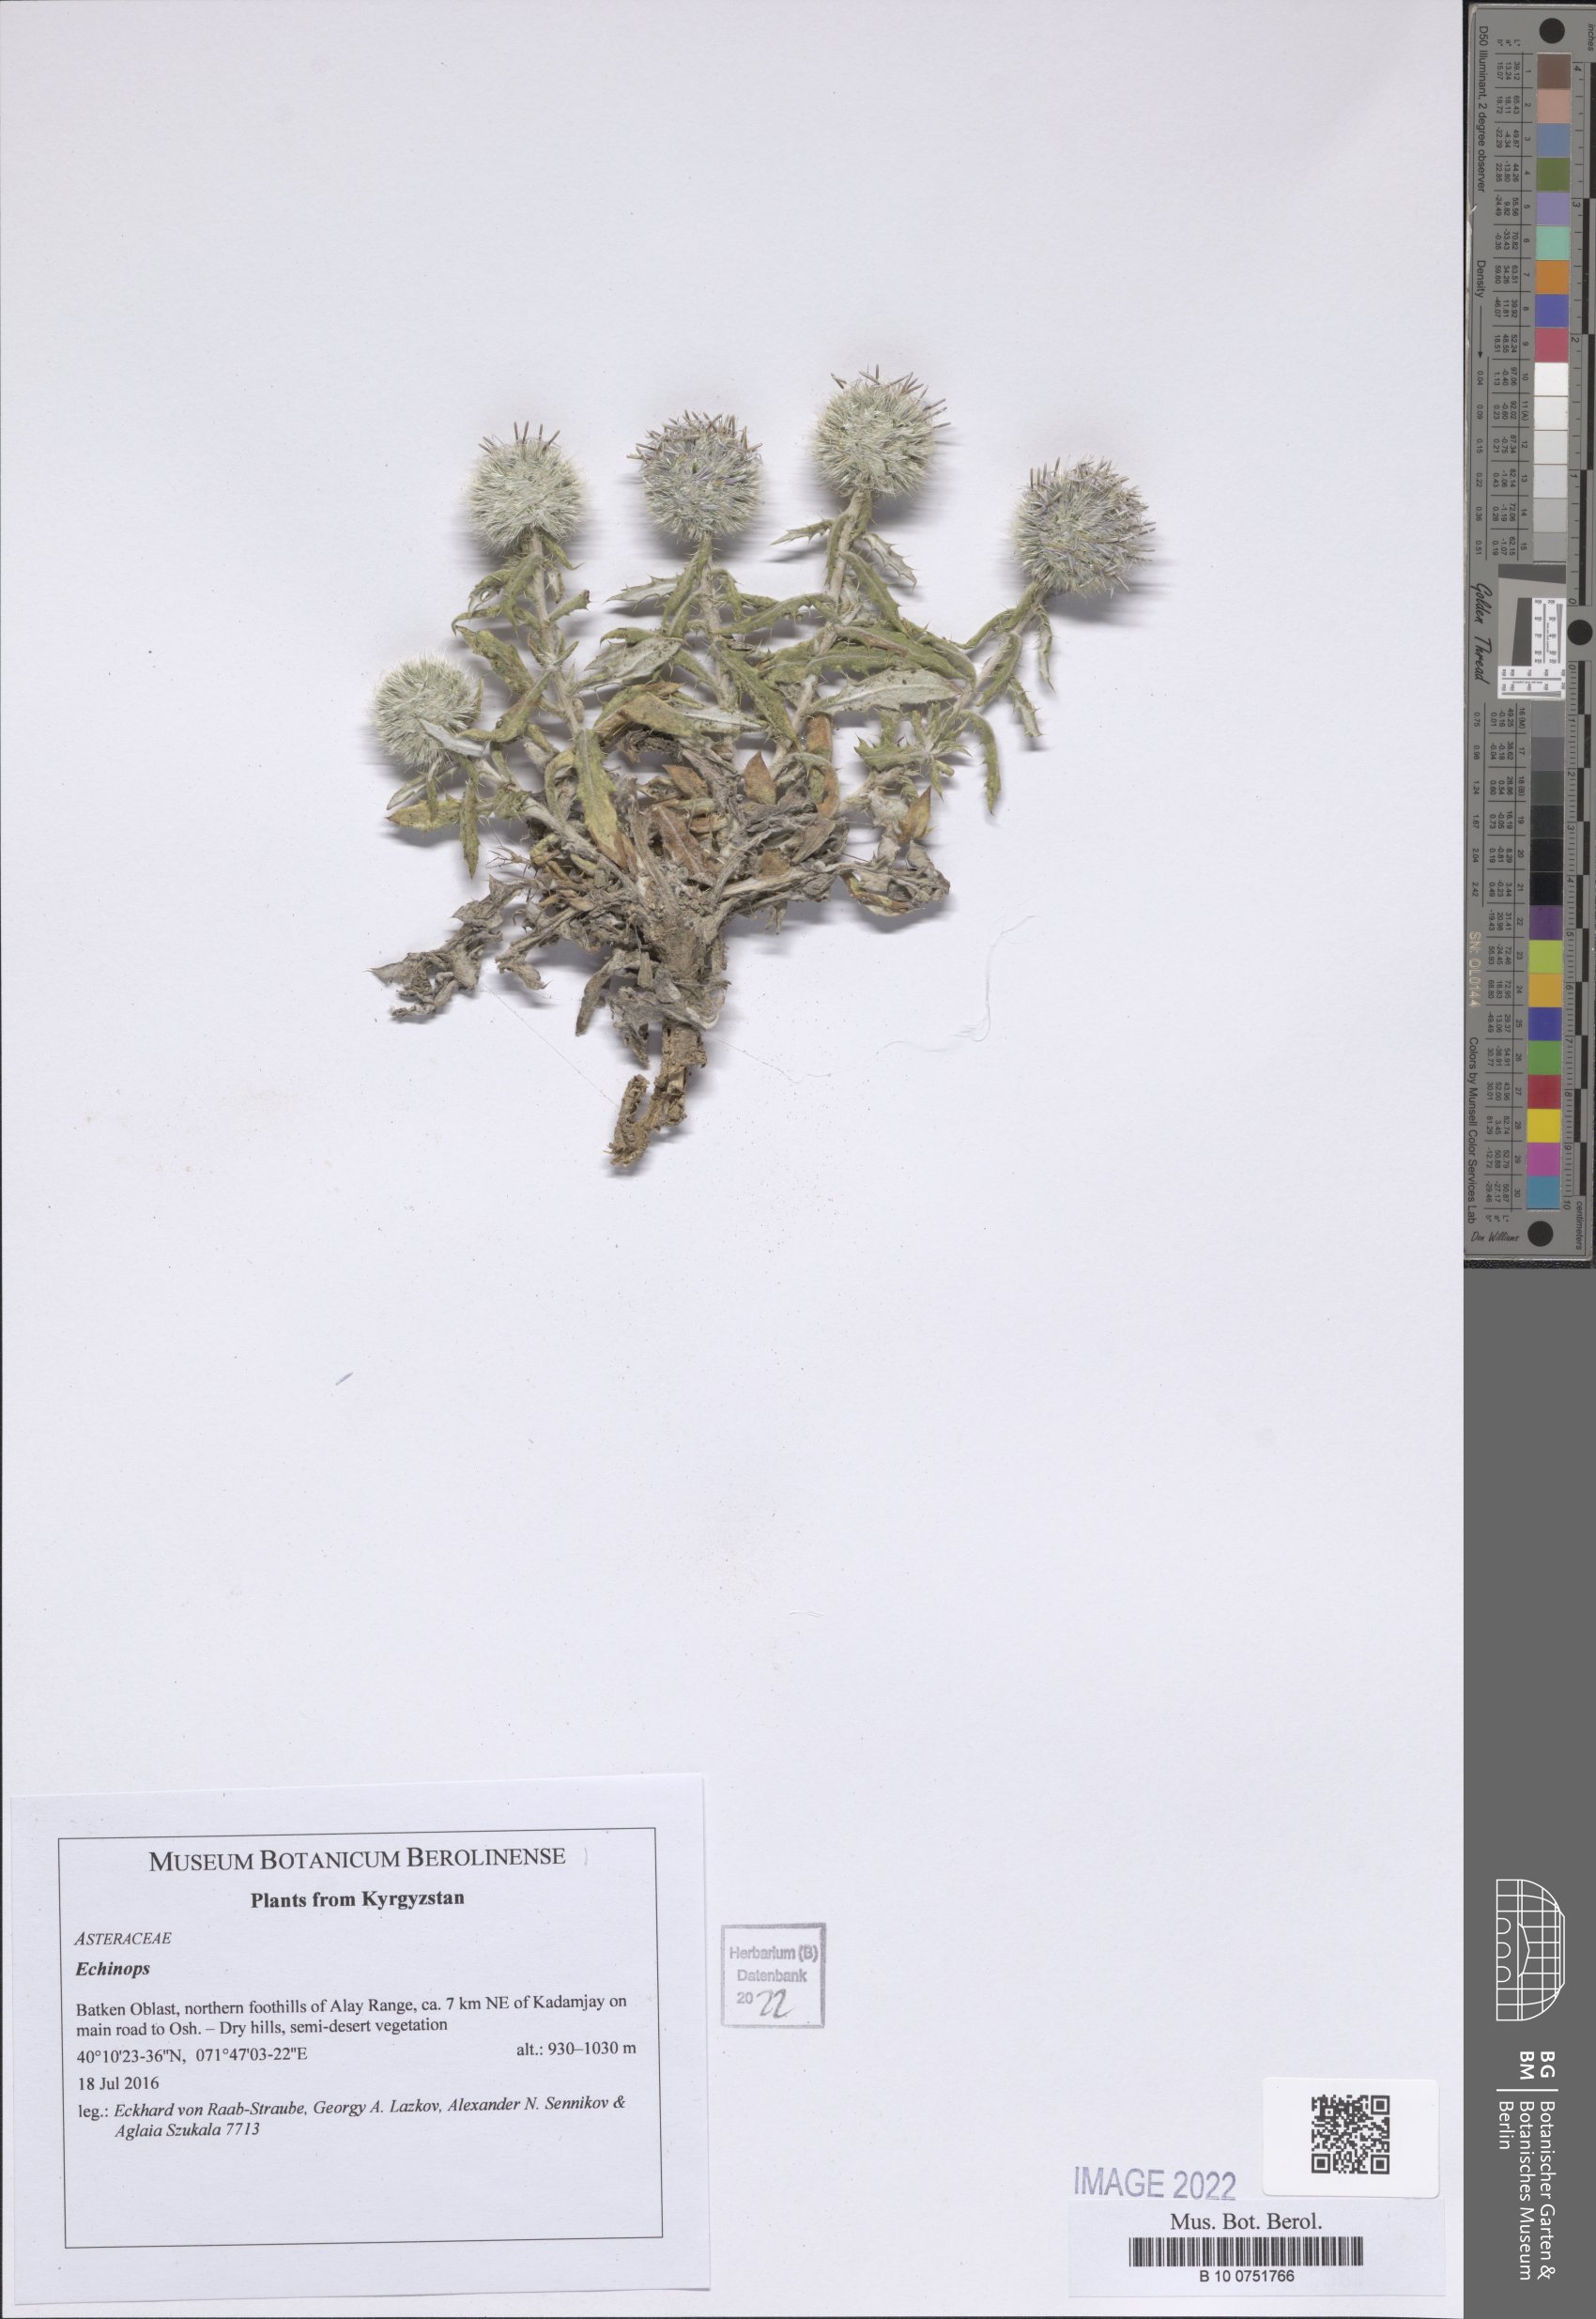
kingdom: Plantae
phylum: Tracheophyta
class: Magnoliopsida
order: Asterales
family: Asteraceae
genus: Echinops
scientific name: Echinops
